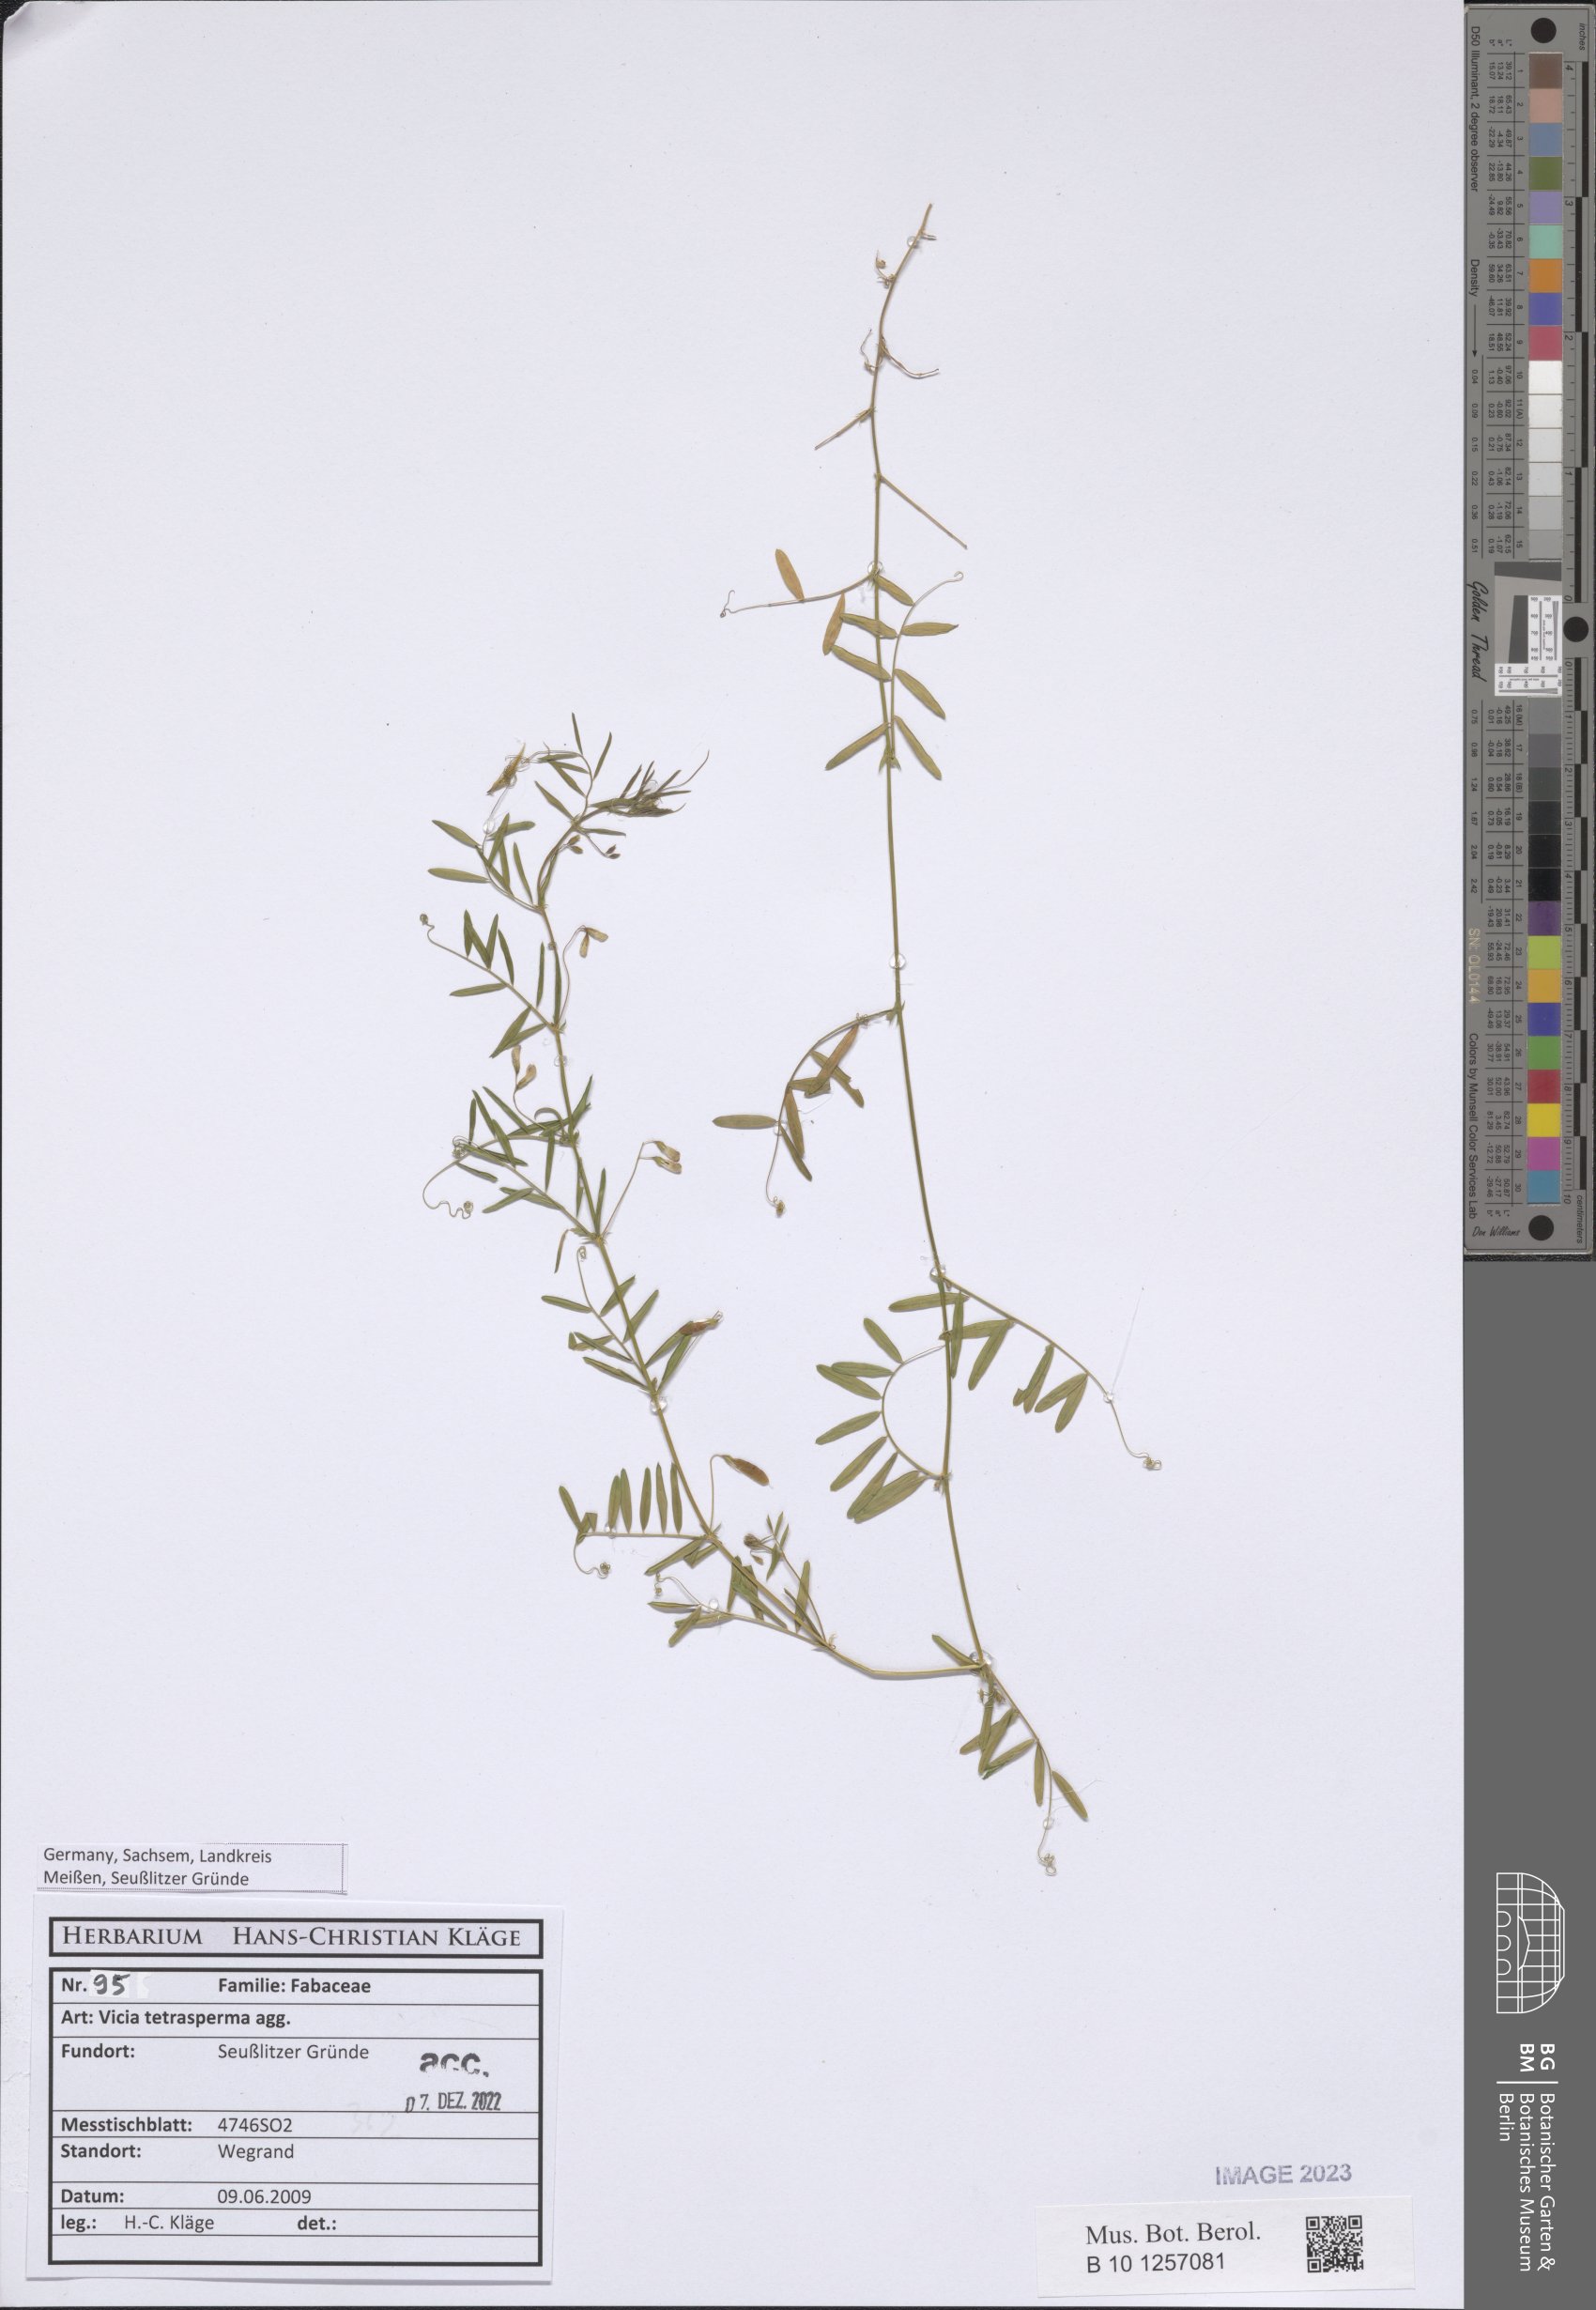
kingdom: Plantae
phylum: Tracheophyta
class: Magnoliopsida
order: Fabales
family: Fabaceae
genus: Vicia
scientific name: Vicia tetrasperma
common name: Smooth tare
